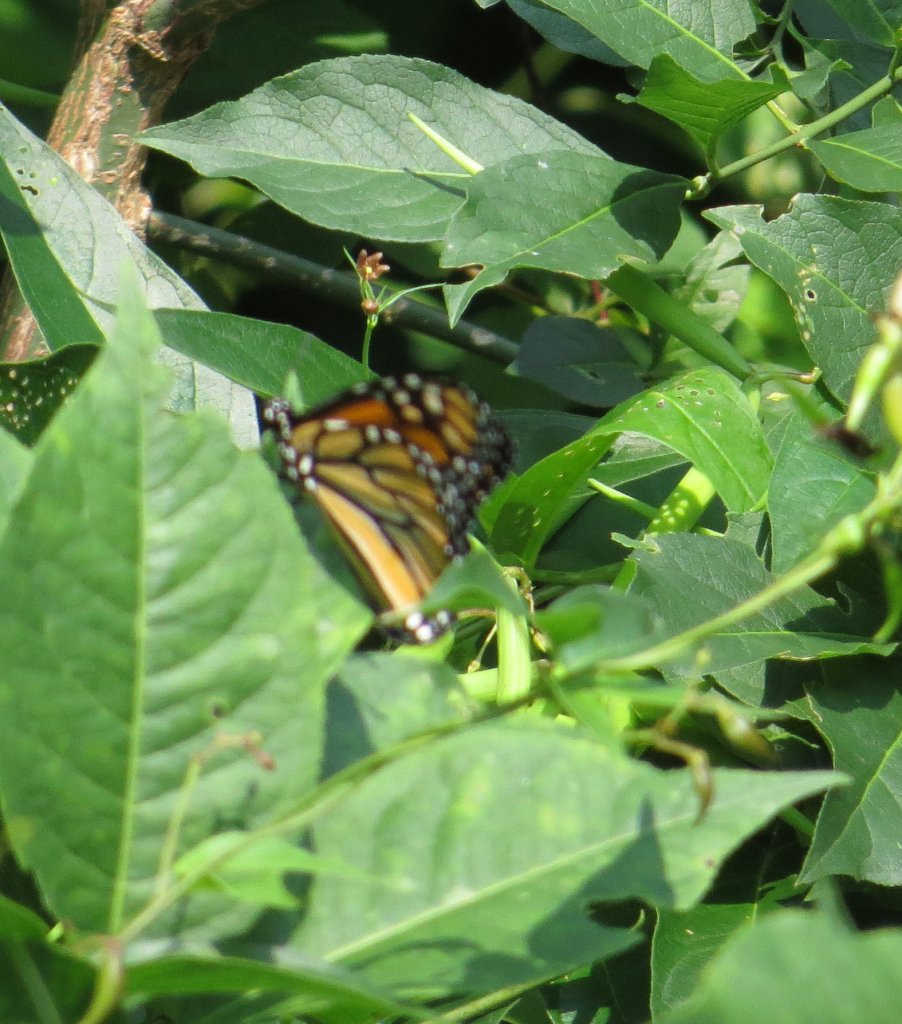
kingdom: Animalia
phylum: Arthropoda
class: Insecta
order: Lepidoptera
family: Nymphalidae
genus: Danaus
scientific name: Danaus plexippus
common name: Monarch
